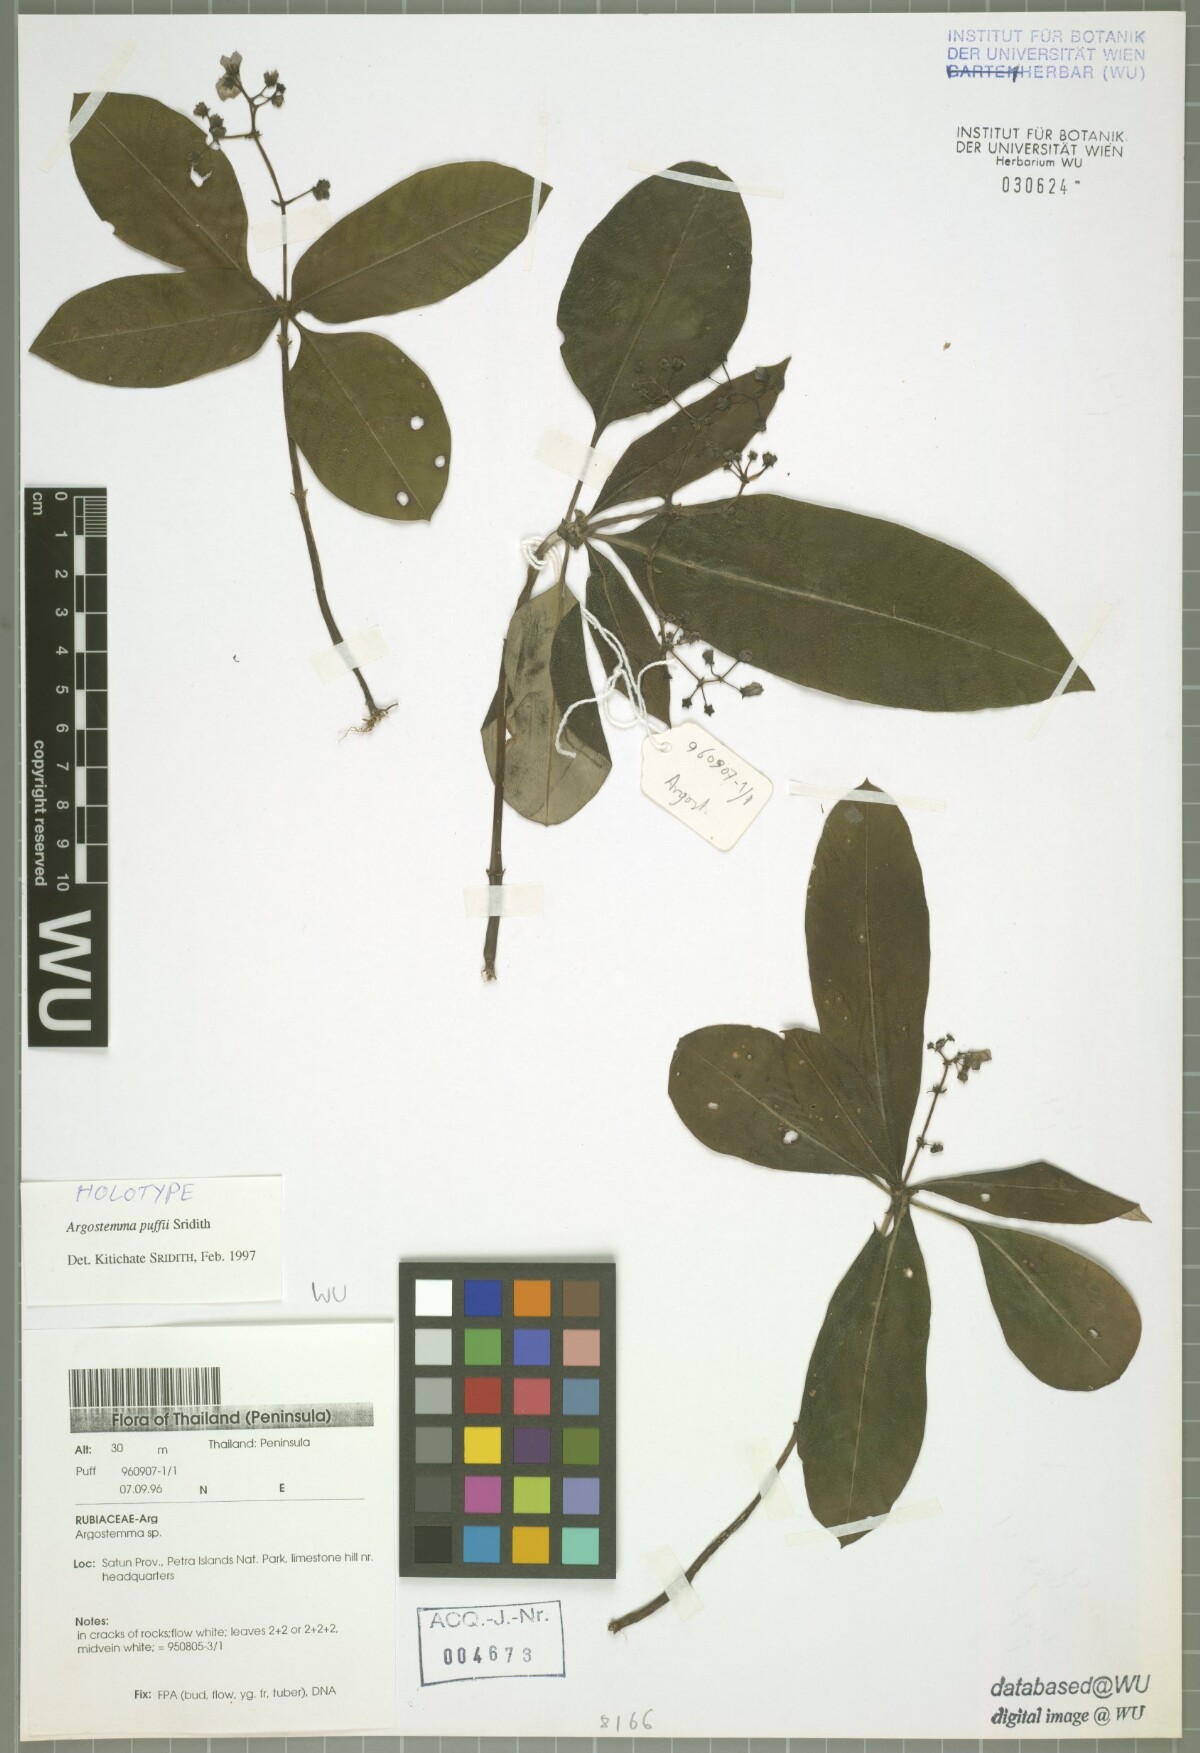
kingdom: Plantae
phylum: Tracheophyta
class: Magnoliopsida
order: Gentianales
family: Rubiaceae
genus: Argostemma
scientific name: Argostemma puffii
